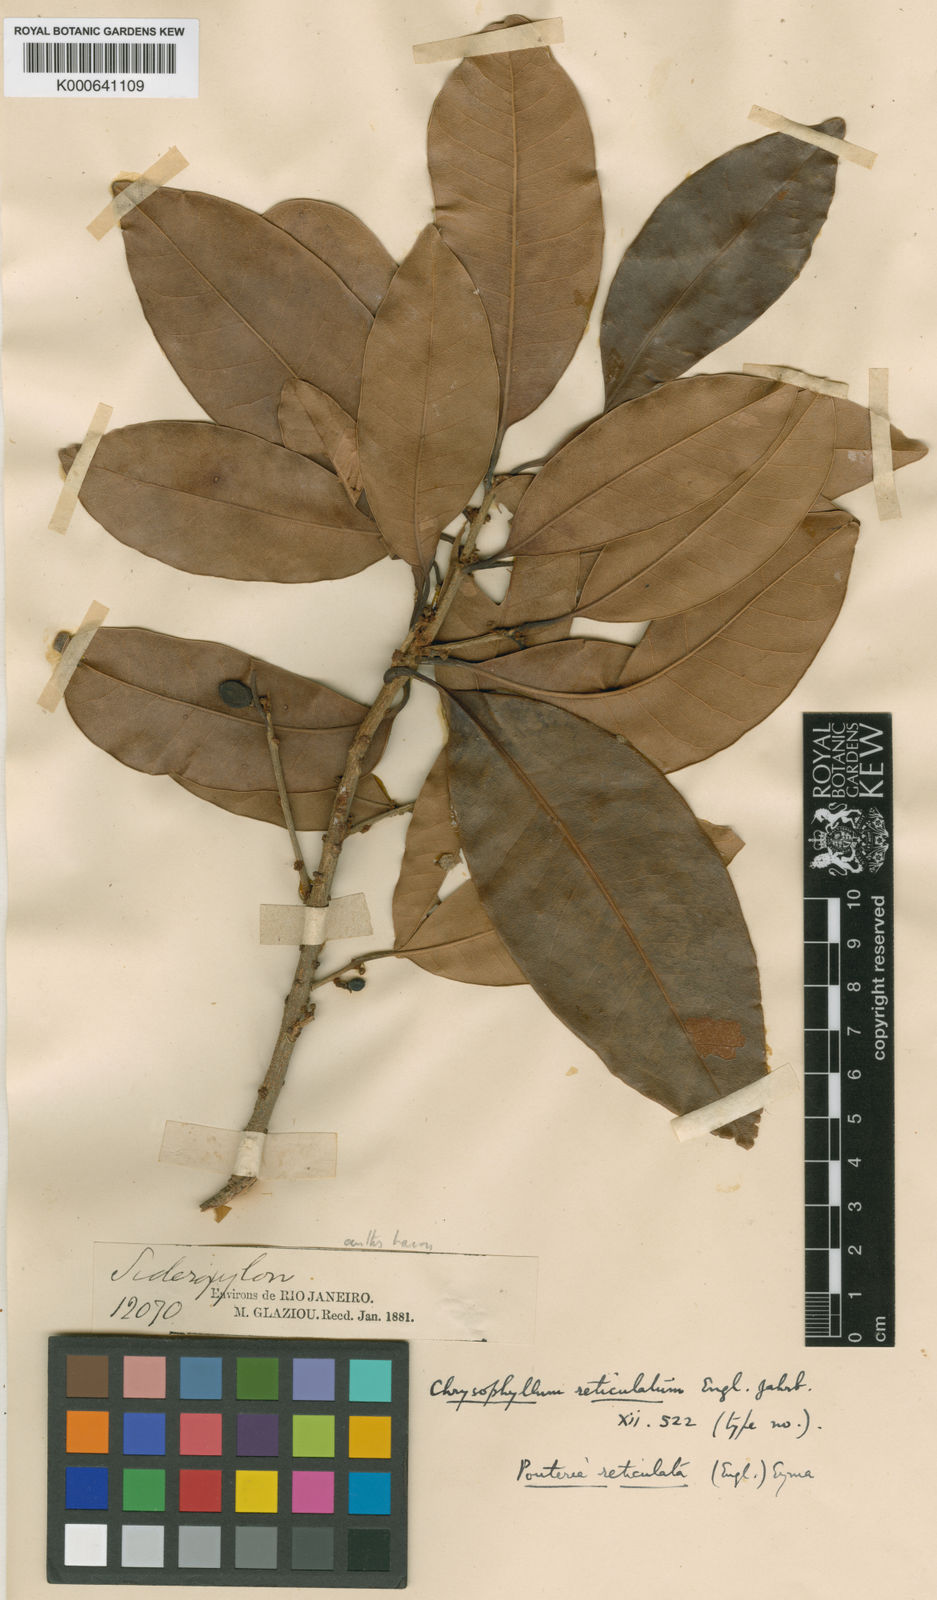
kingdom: Plantae
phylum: Tracheophyta
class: Magnoliopsida
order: Ericales
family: Sapotaceae
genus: Pouteria
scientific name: Pouteria reticulata
